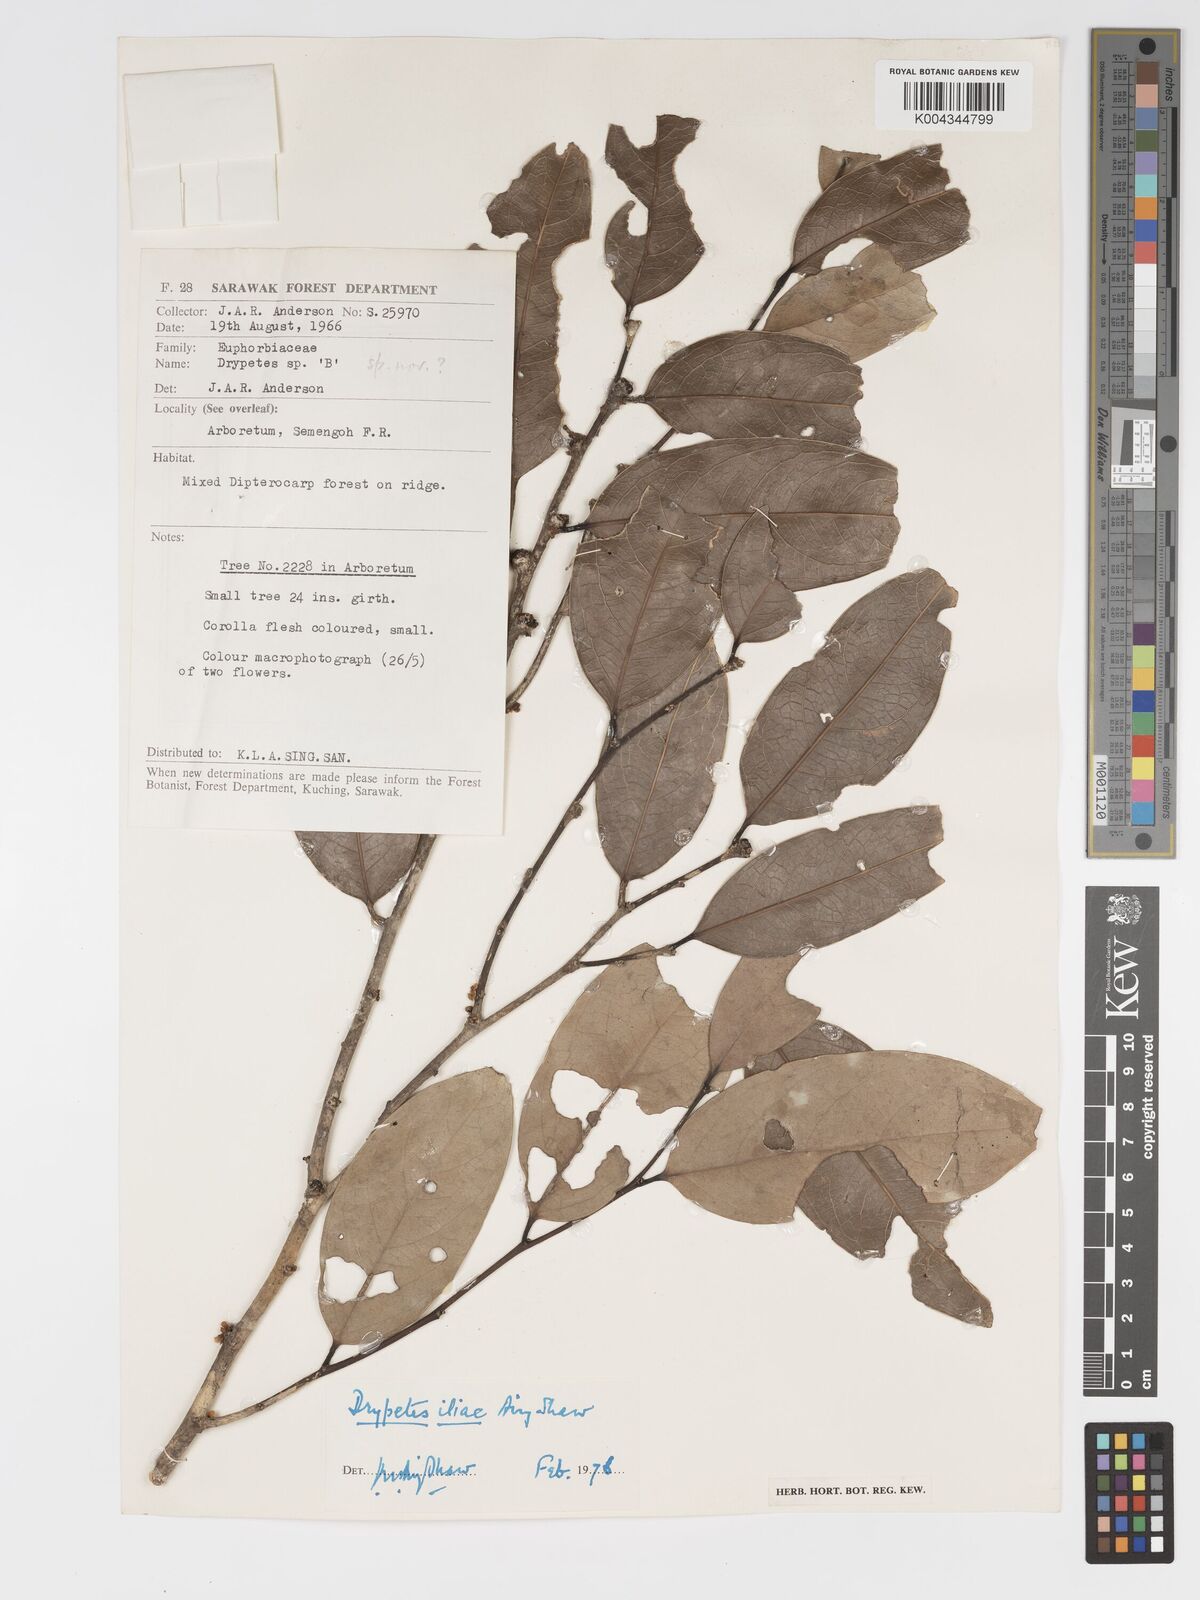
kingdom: Plantae
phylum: Tracheophyta
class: Magnoliopsida
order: Malpighiales
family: Putranjivaceae
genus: Drypetes
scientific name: Drypetes iliae
